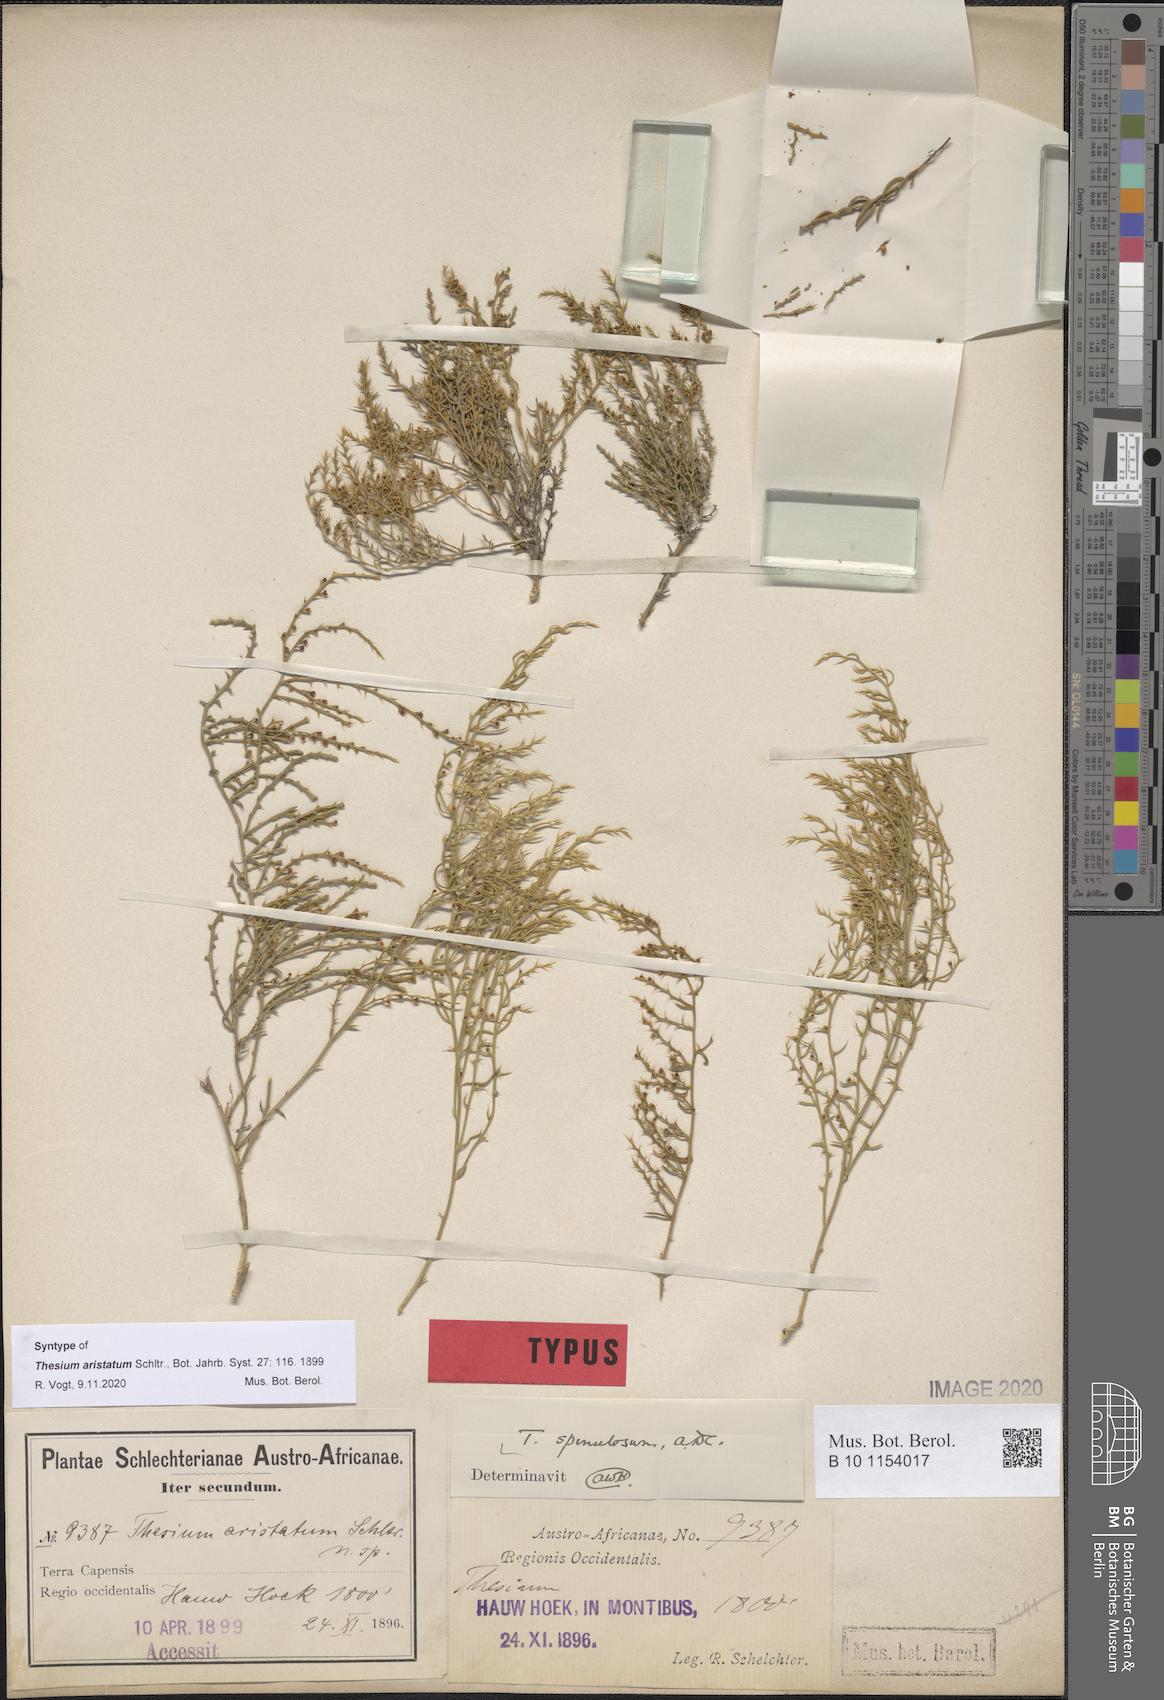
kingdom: Plantae
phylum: Tracheophyta
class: Magnoliopsida
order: Santalales
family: Thesiaceae
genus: Thesium
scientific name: Thesium spinulosum
